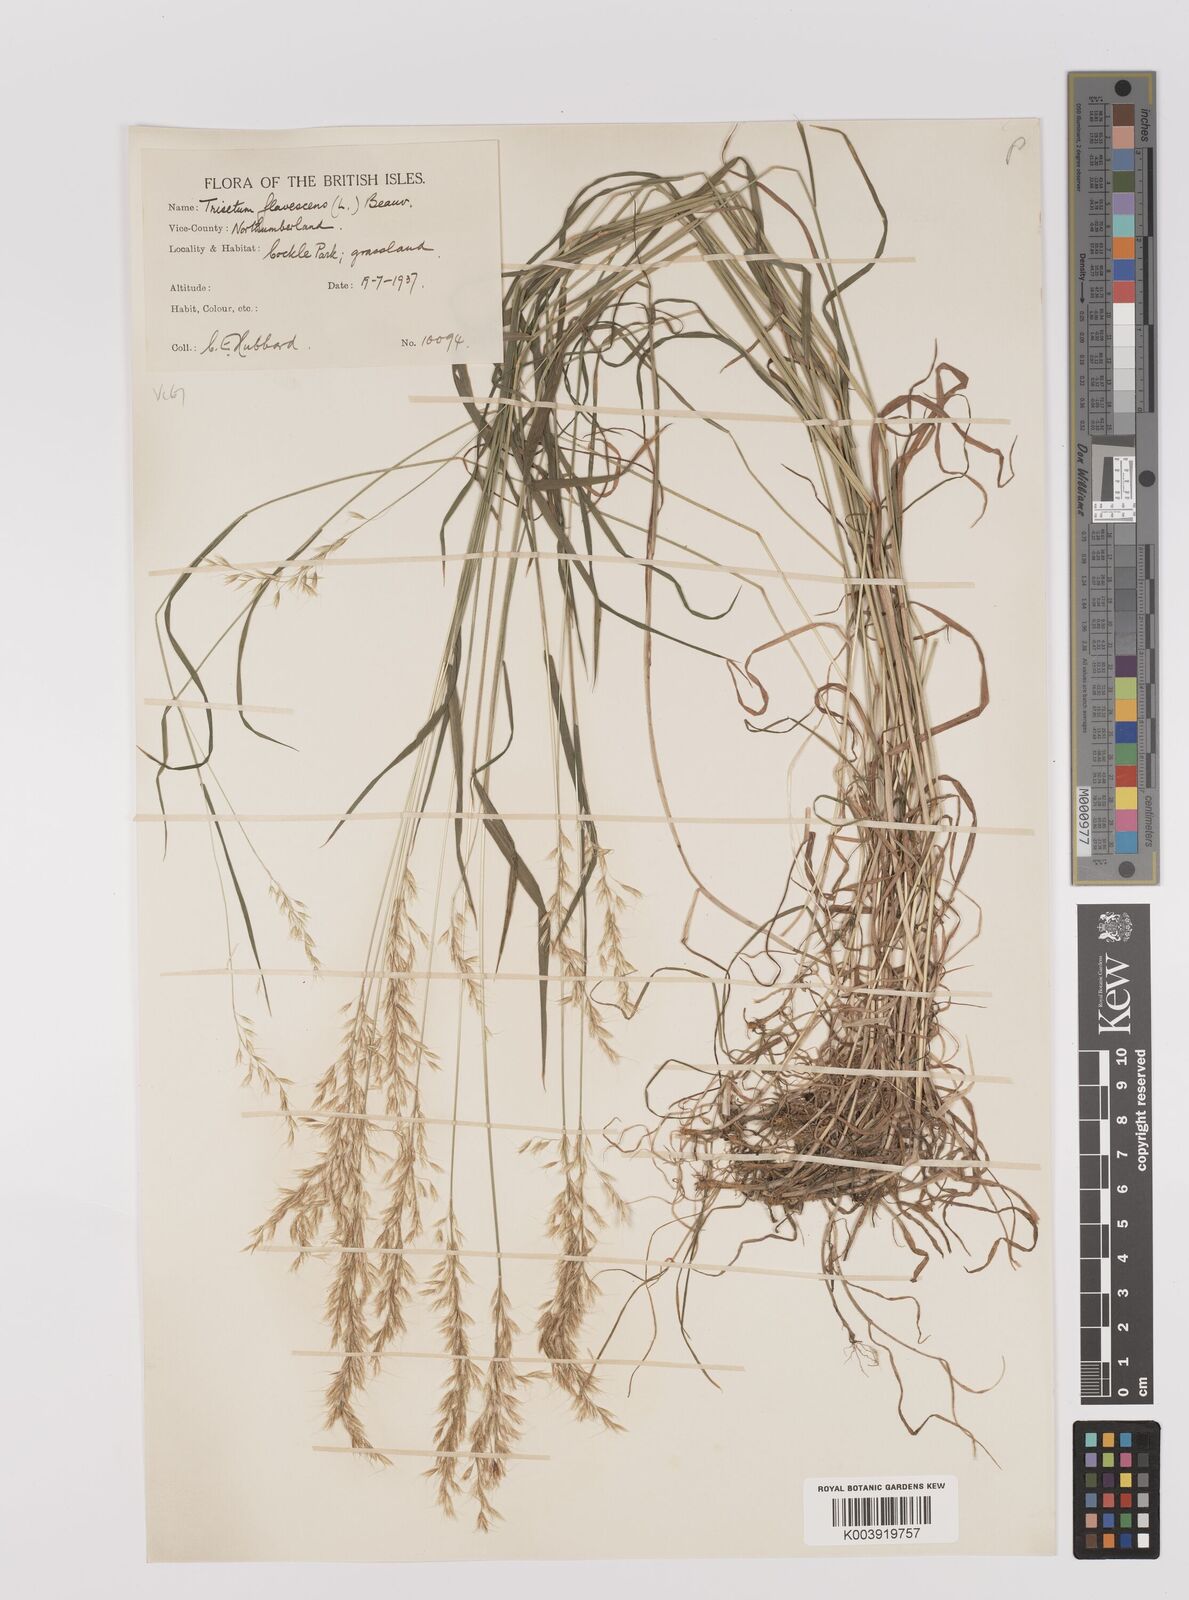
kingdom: Plantae
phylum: Tracheophyta
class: Liliopsida
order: Poales
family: Poaceae
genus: Trisetum
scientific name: Trisetum flavescens
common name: Yellow oat-grass
